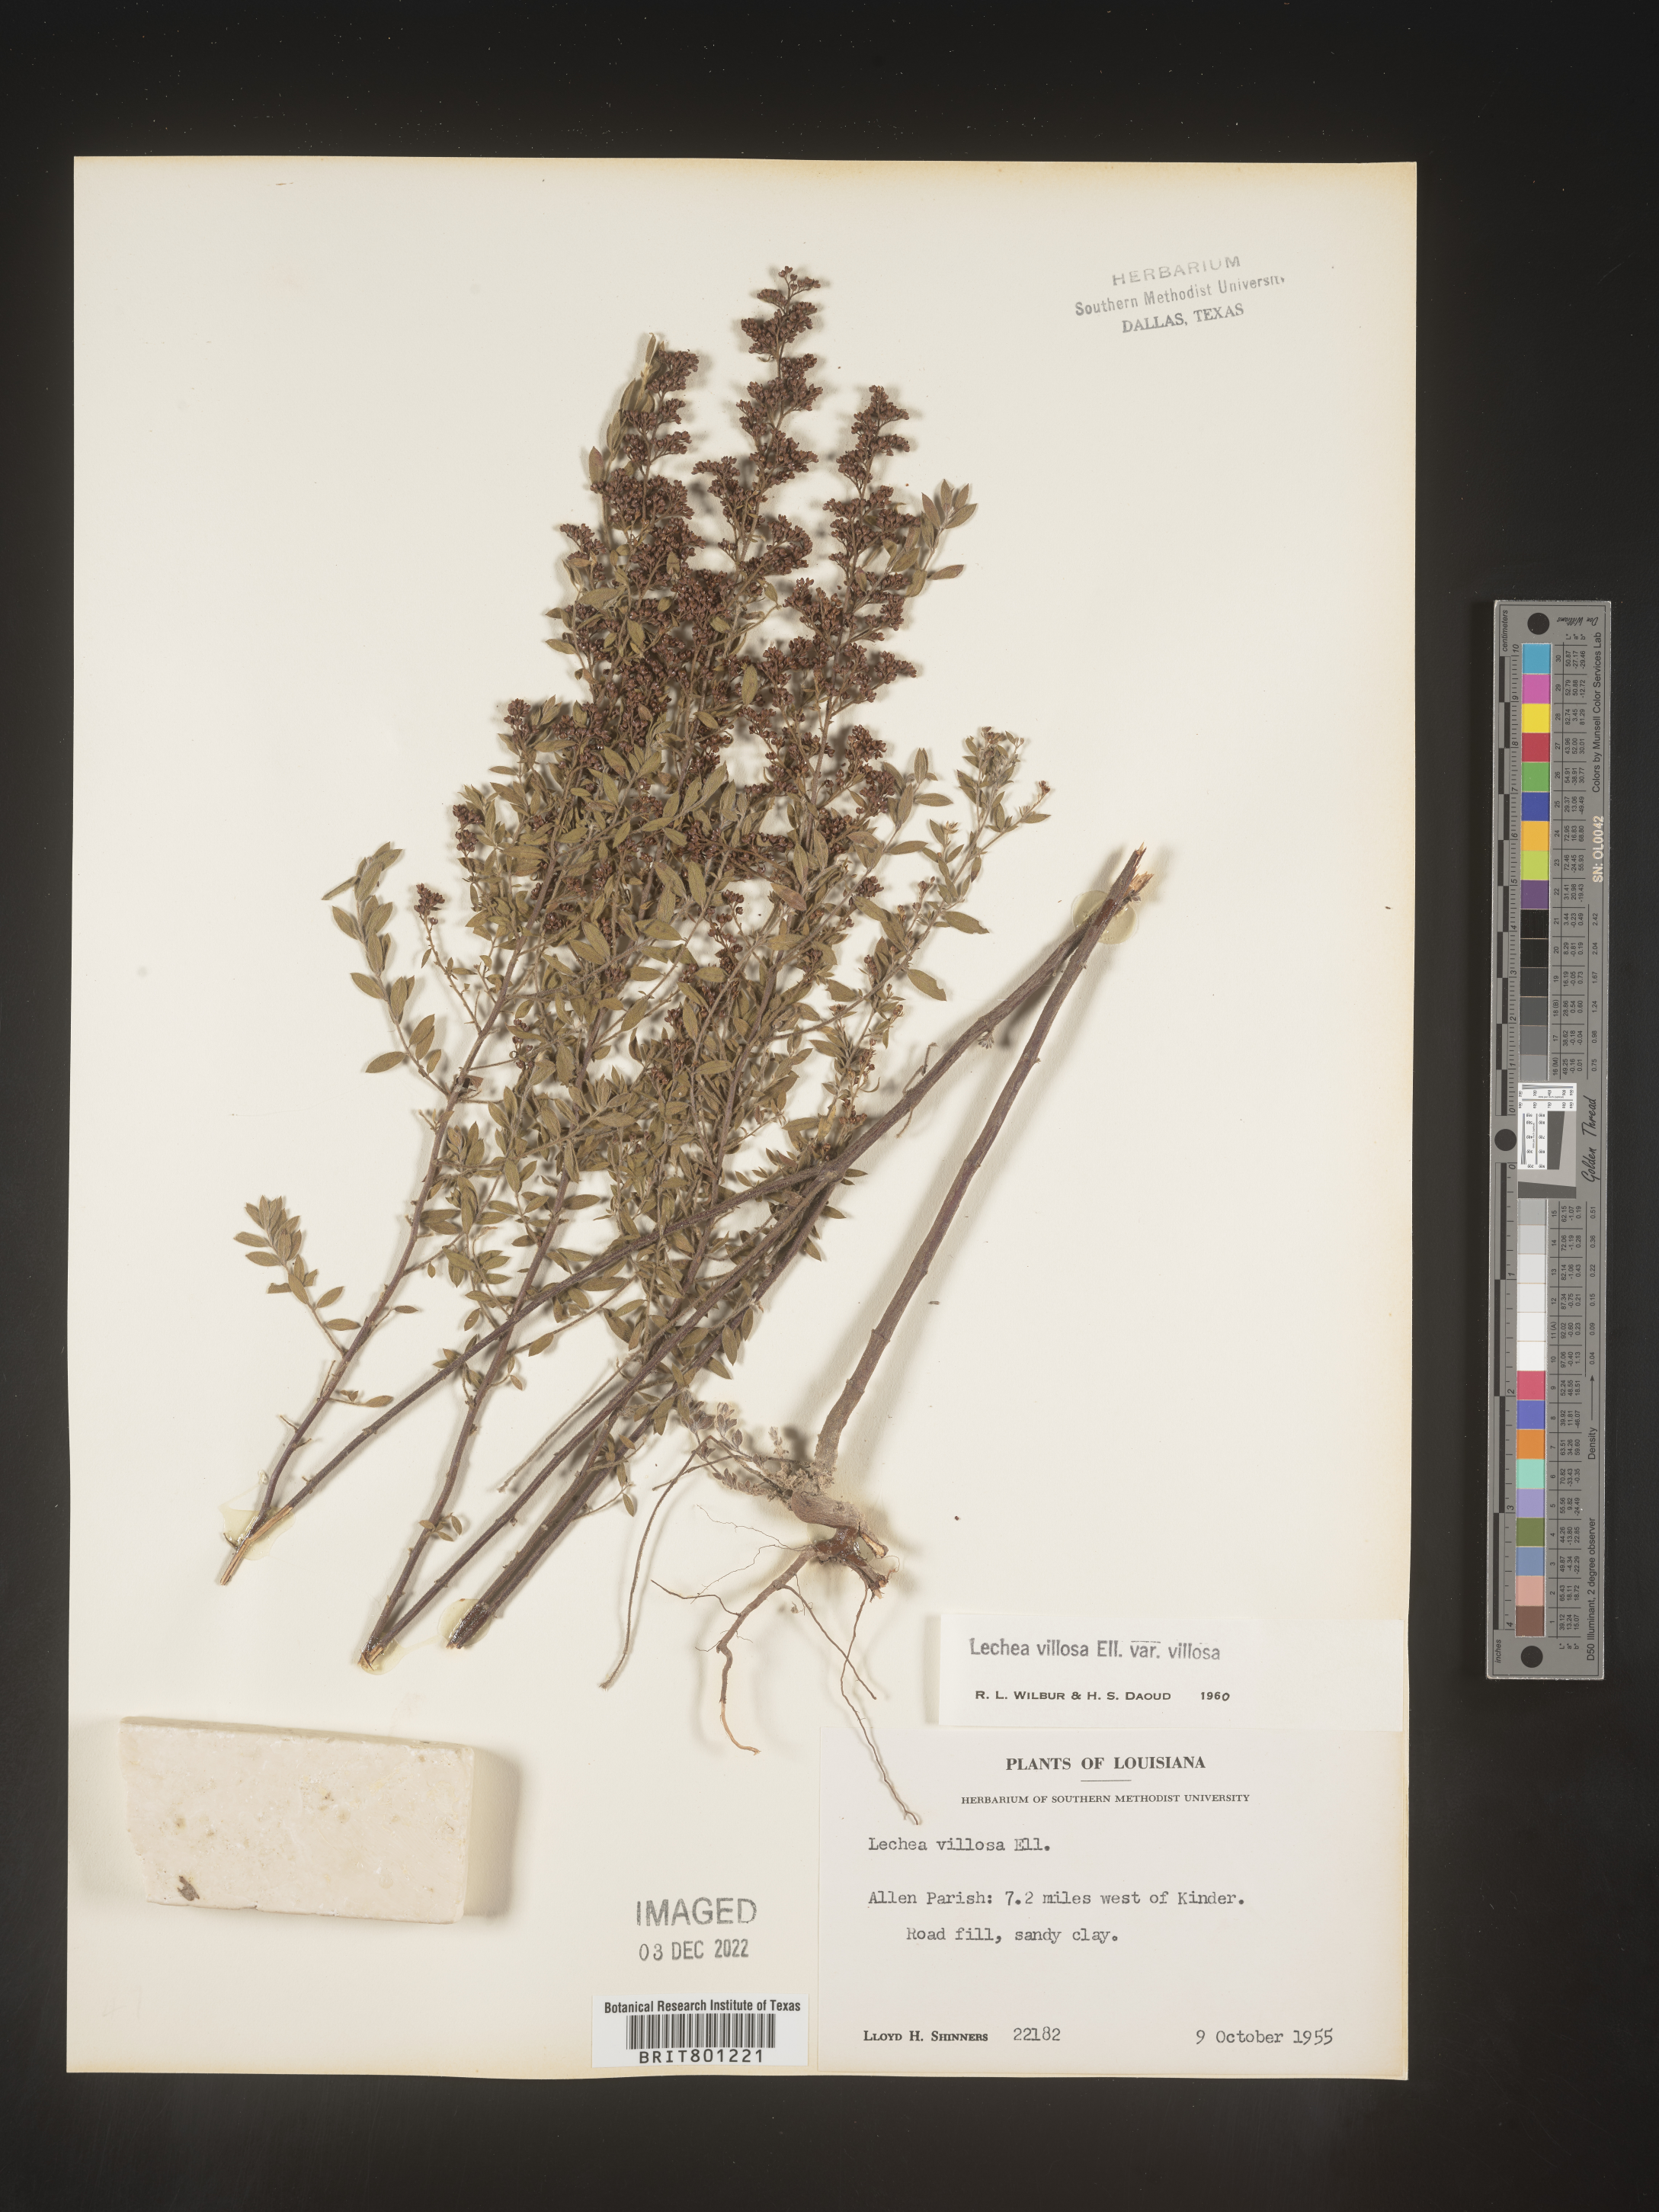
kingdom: Plantae
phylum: Tracheophyta
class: Magnoliopsida
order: Malvales
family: Cistaceae
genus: Lechea
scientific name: Lechea mucronata
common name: Hairy pinweed
